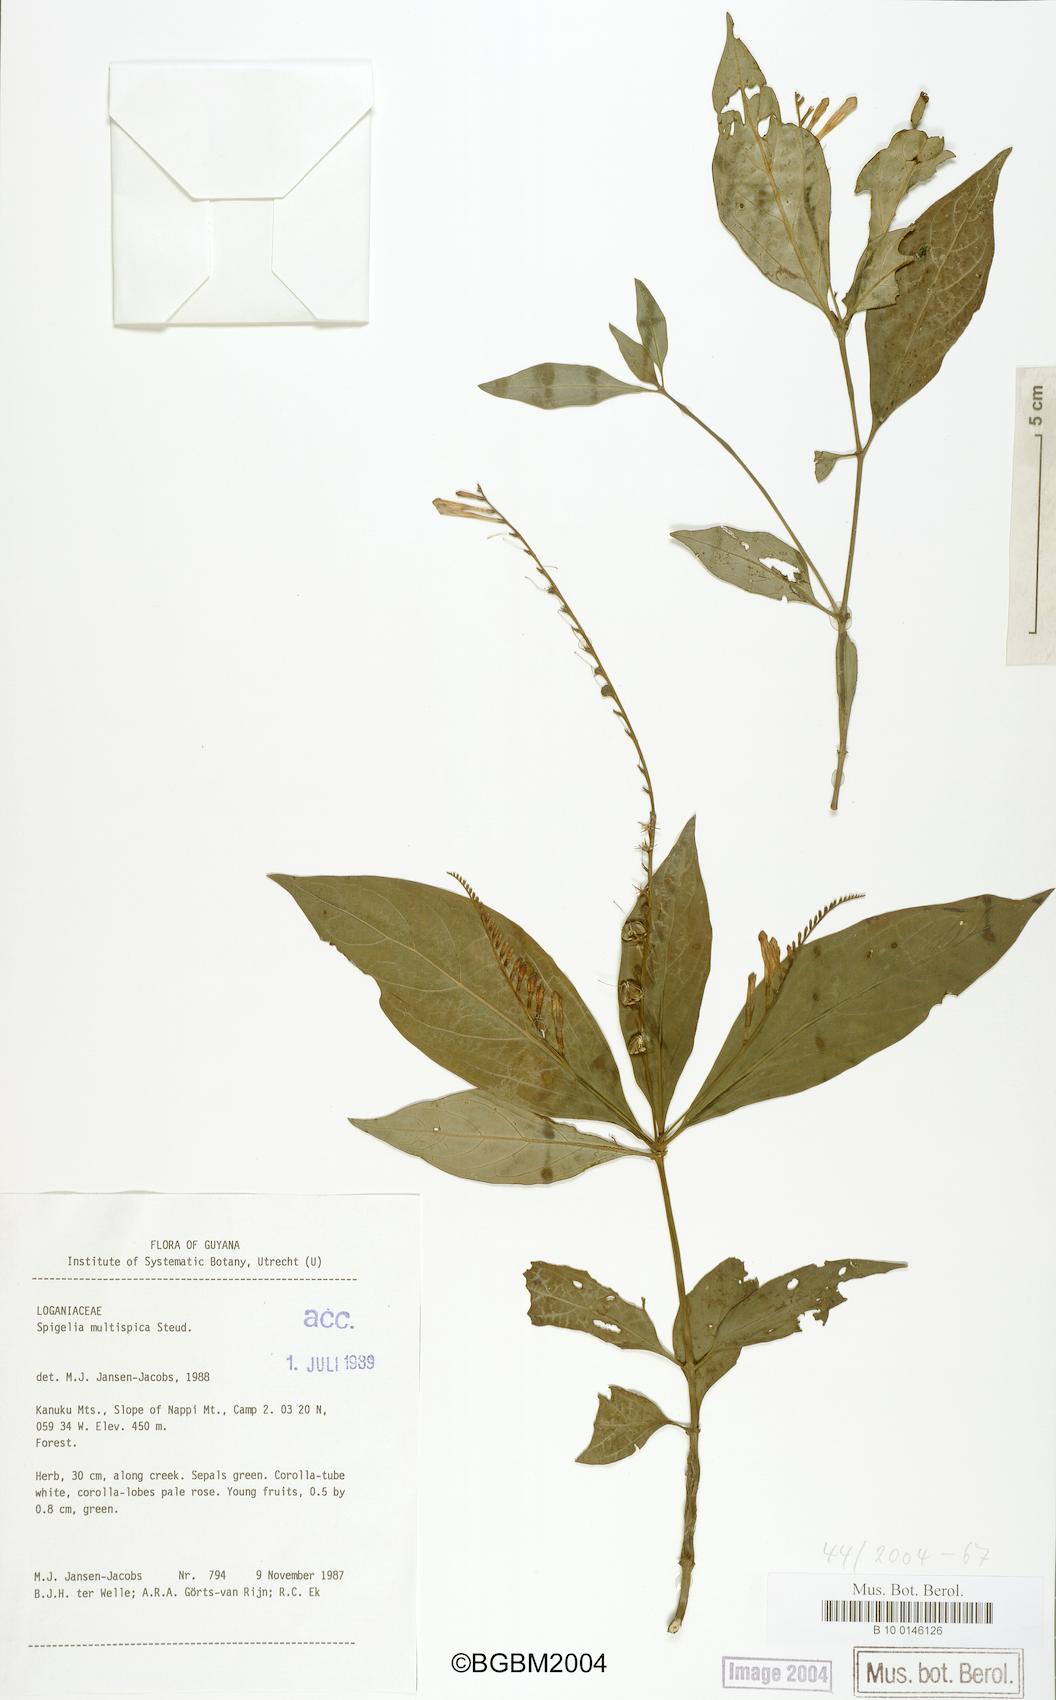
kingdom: Plantae
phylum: Tracheophyta
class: Magnoliopsida
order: Gentianales
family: Loganiaceae
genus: Spigelia
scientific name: Spigelia hamellioides
